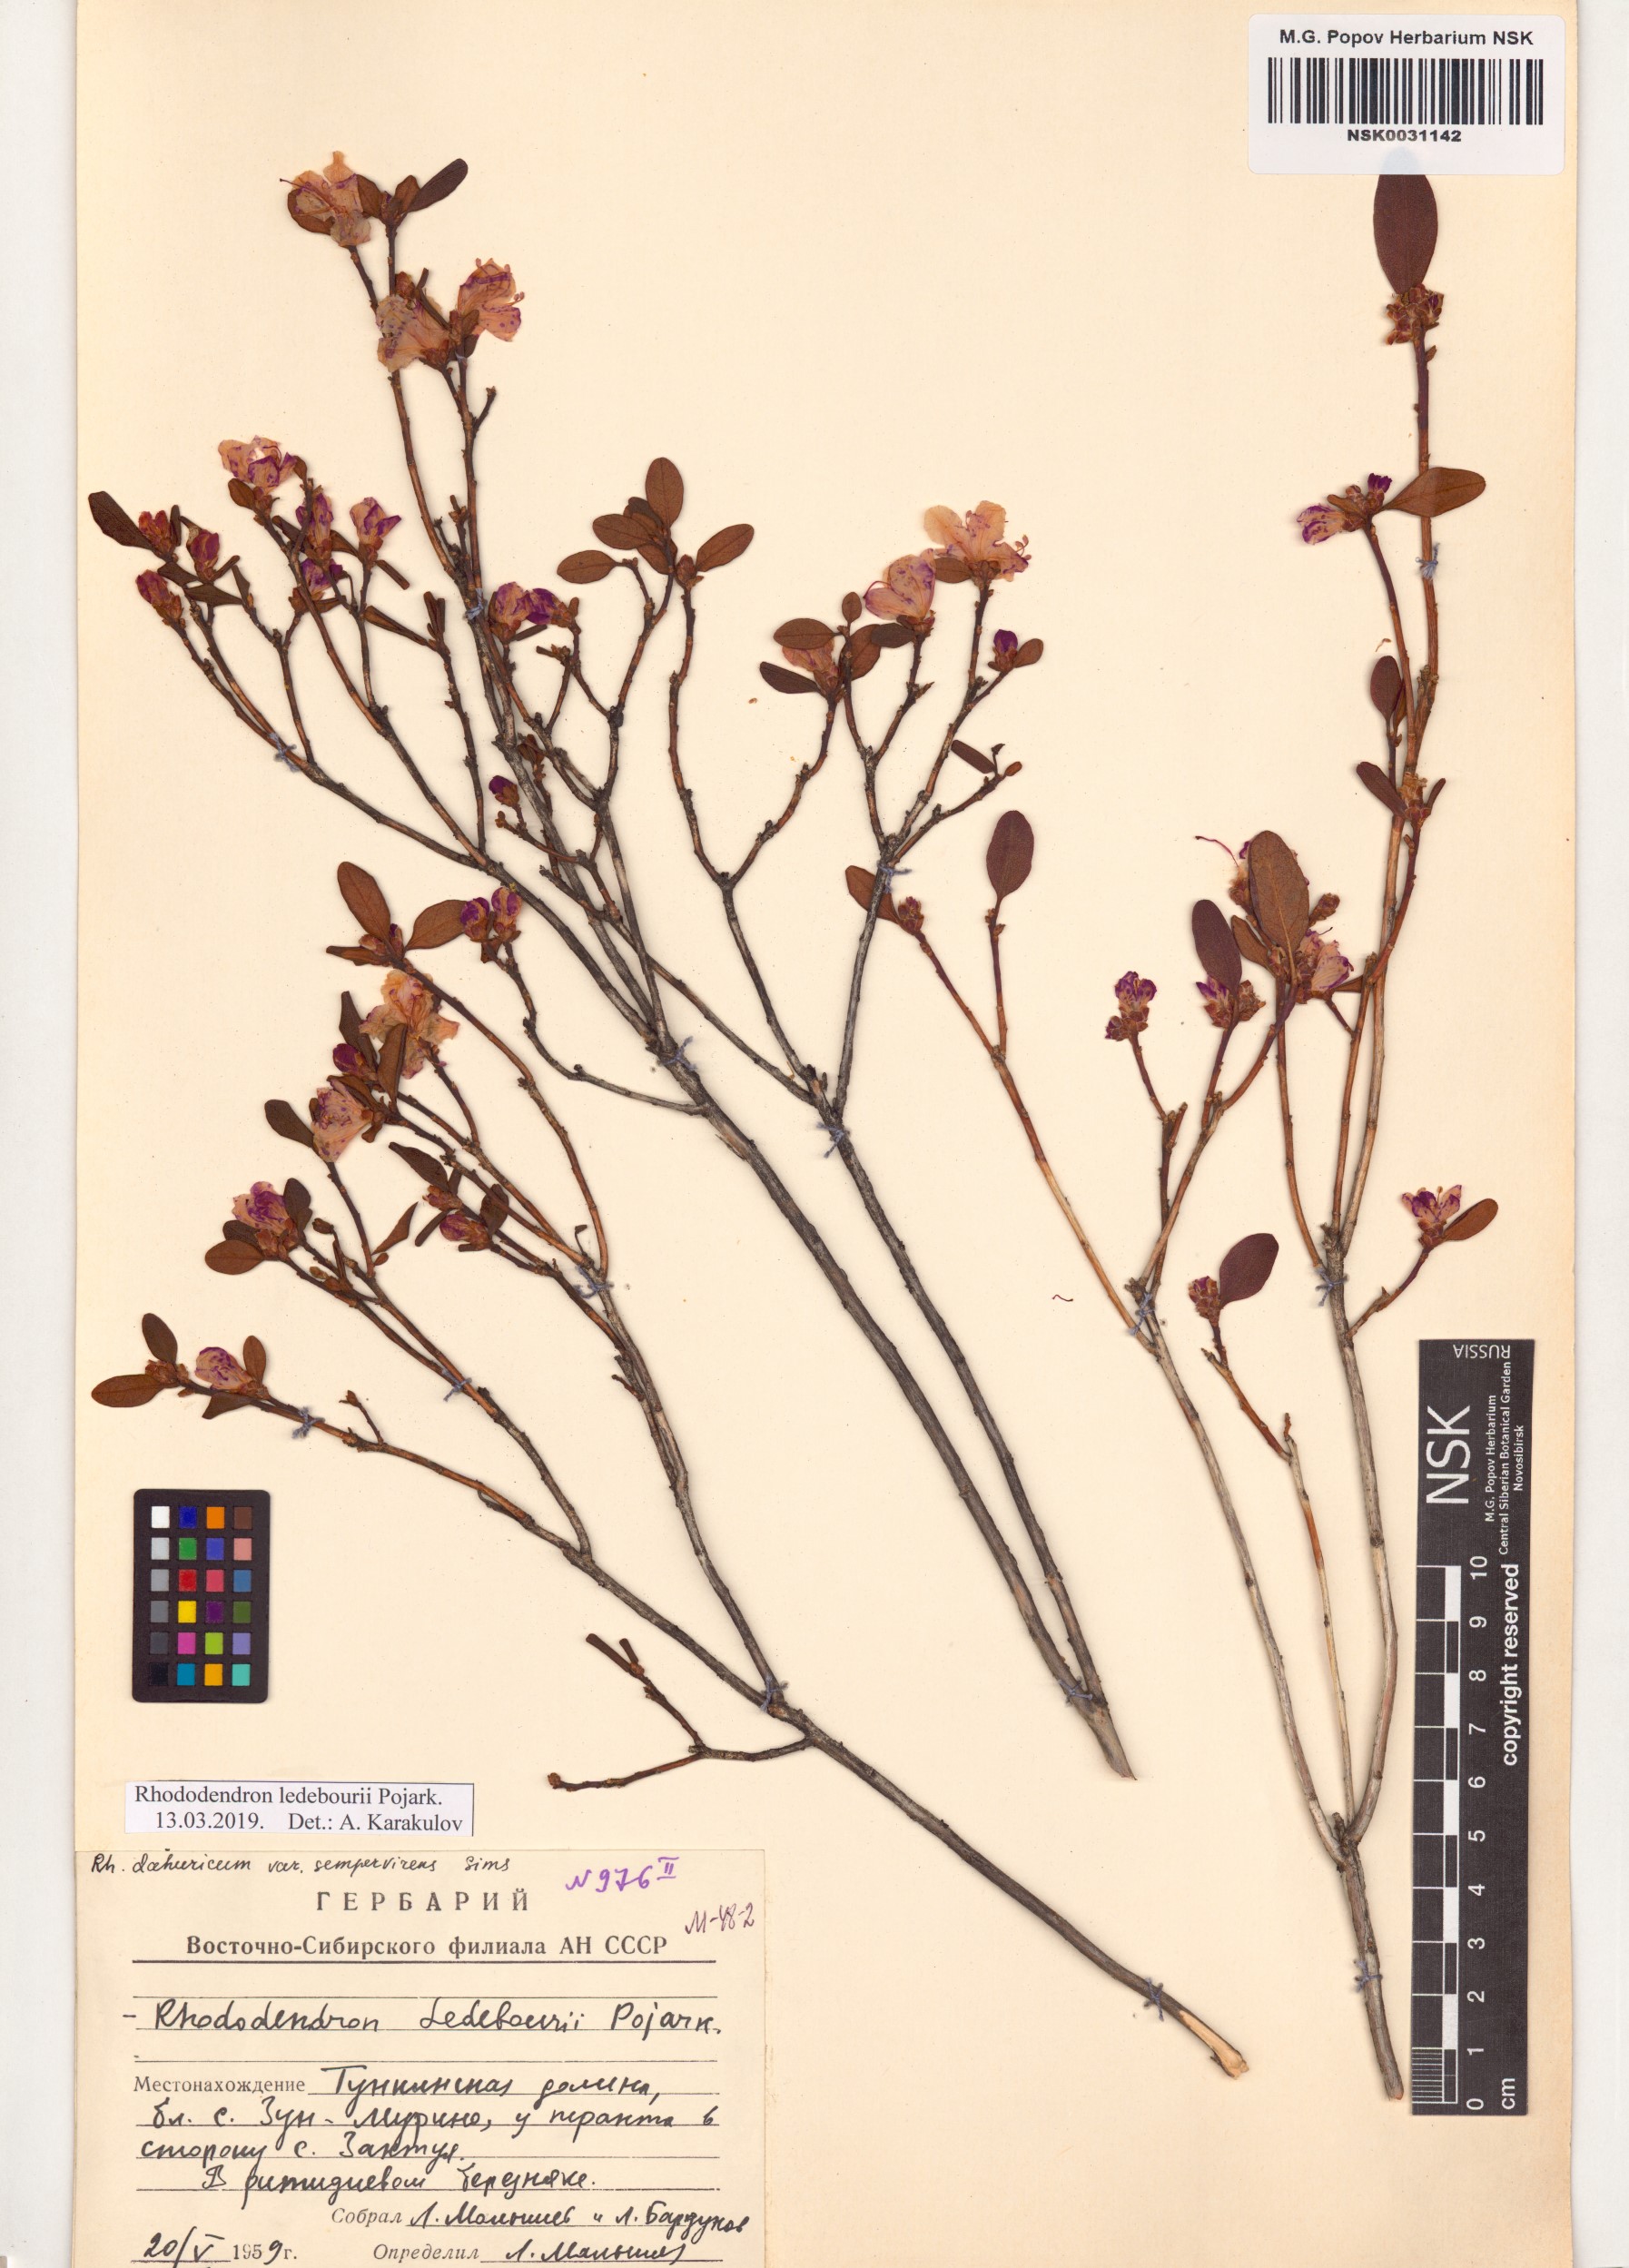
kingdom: Plantae
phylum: Tracheophyta
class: Magnoliopsida
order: Ericales
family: Ericaceae
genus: Rhododendron
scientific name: Rhododendron dauricum
